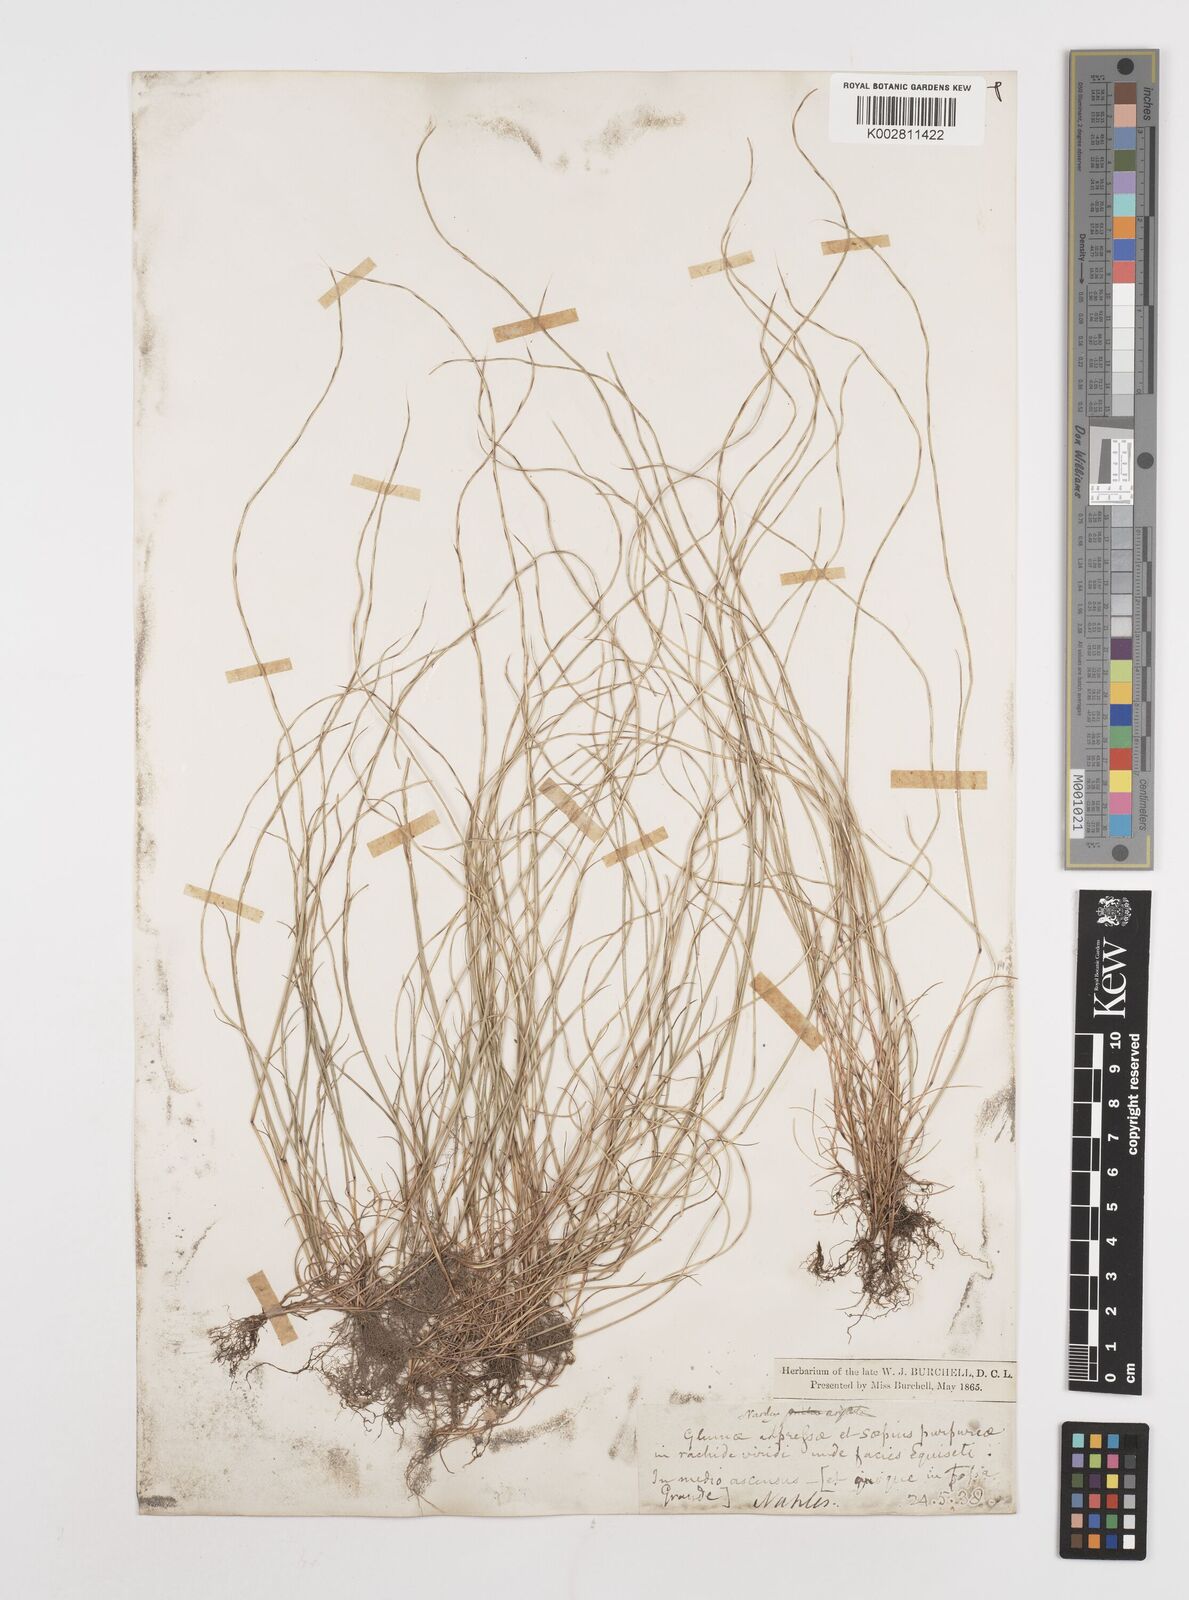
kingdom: Plantae
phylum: Tracheophyta
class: Liliopsida
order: Poales
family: Poaceae
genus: Festuca
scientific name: Festuca incurva
